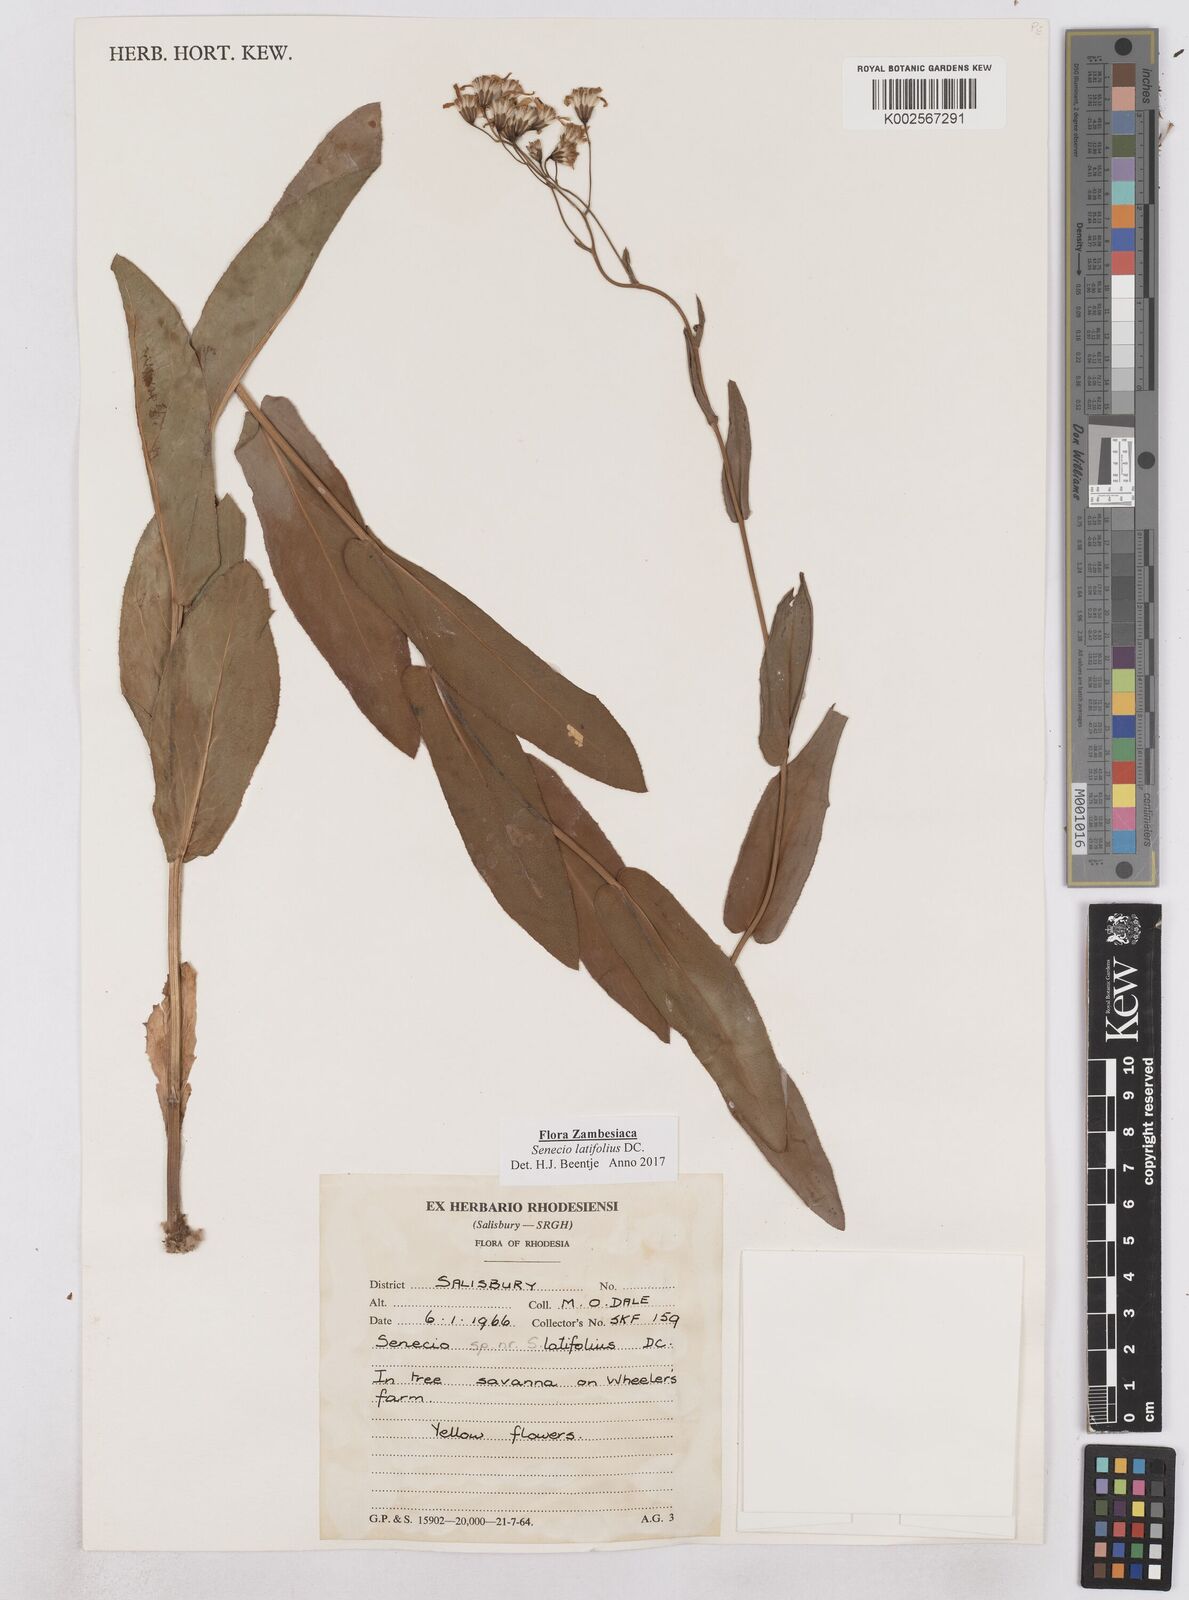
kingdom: Plantae
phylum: Tracheophyta
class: Magnoliopsida
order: Asterales
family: Asteraceae
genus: Senecio
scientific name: Senecio latifolius
